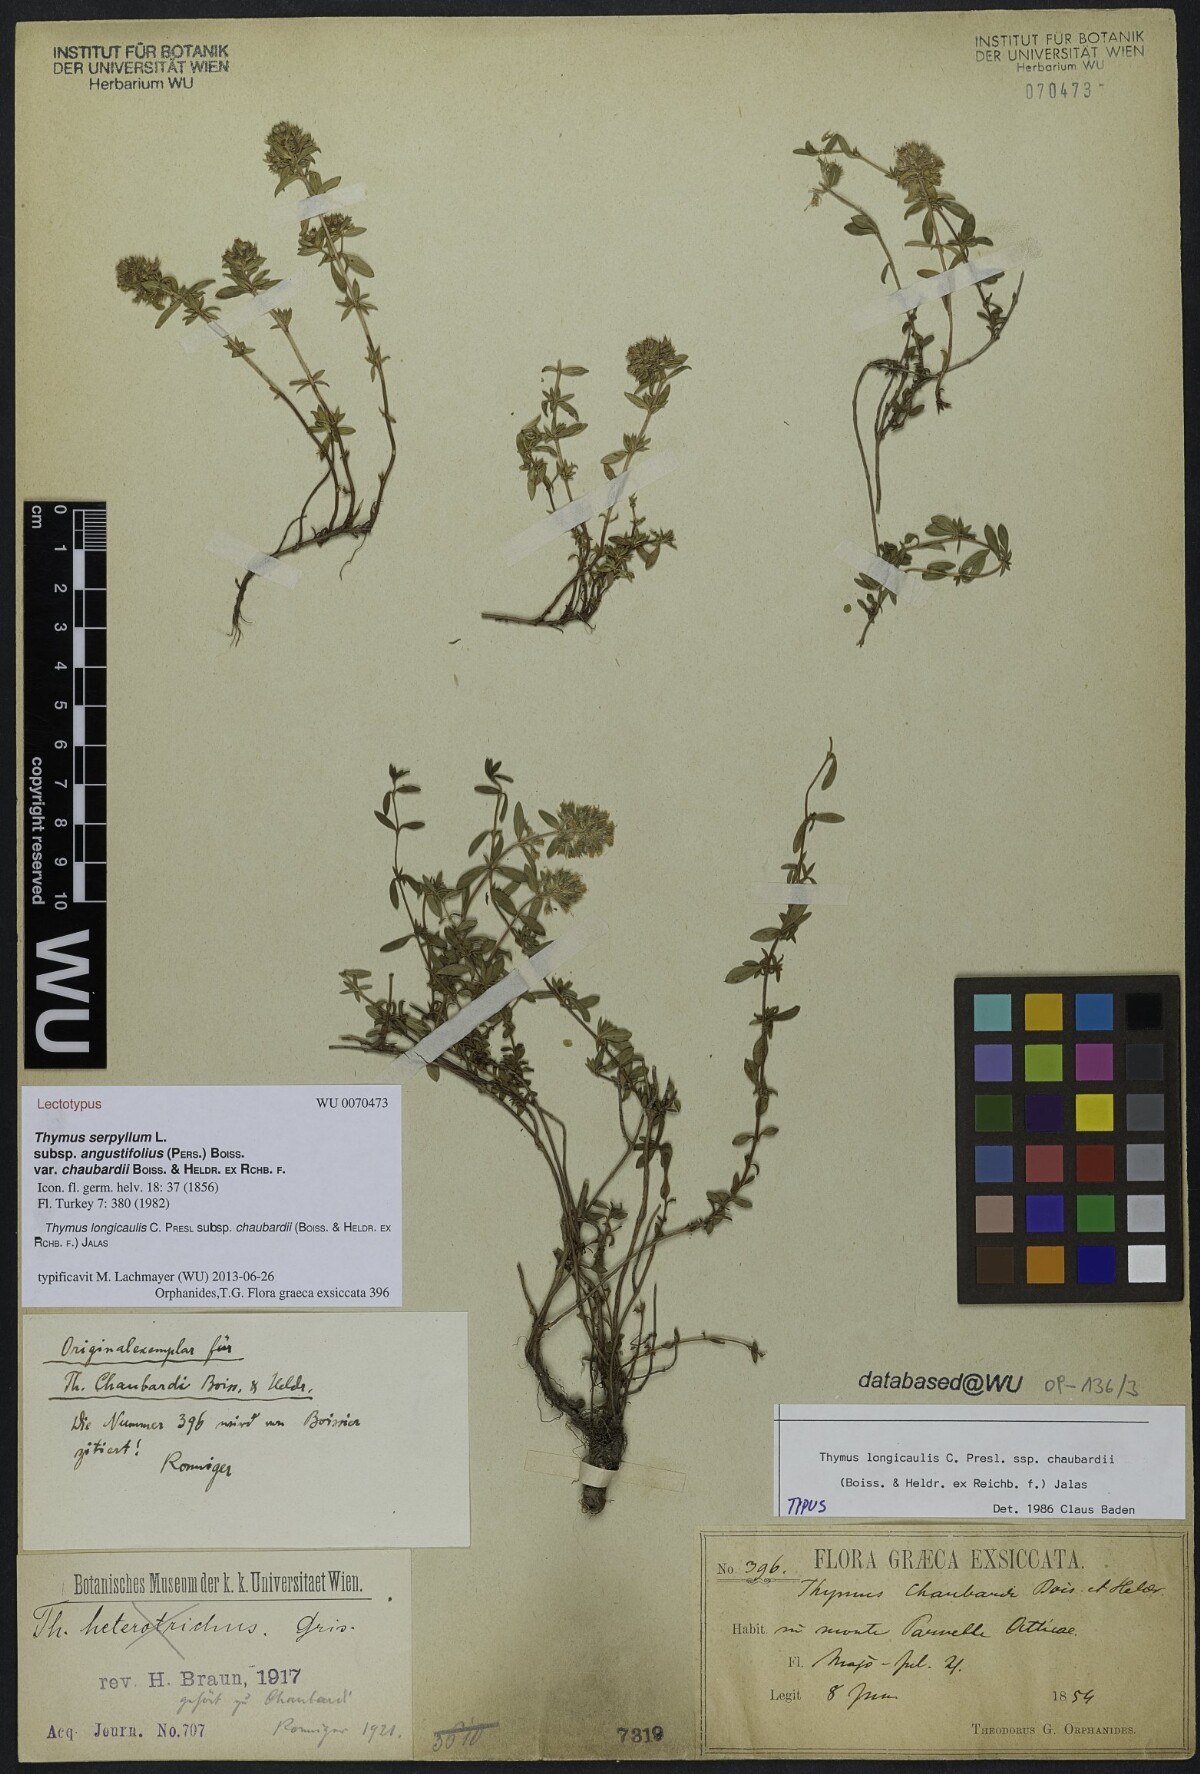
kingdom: Plantae
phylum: Tracheophyta
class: Magnoliopsida
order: Lamiales
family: Lamiaceae
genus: Thymus
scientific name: Thymus longicaulis
